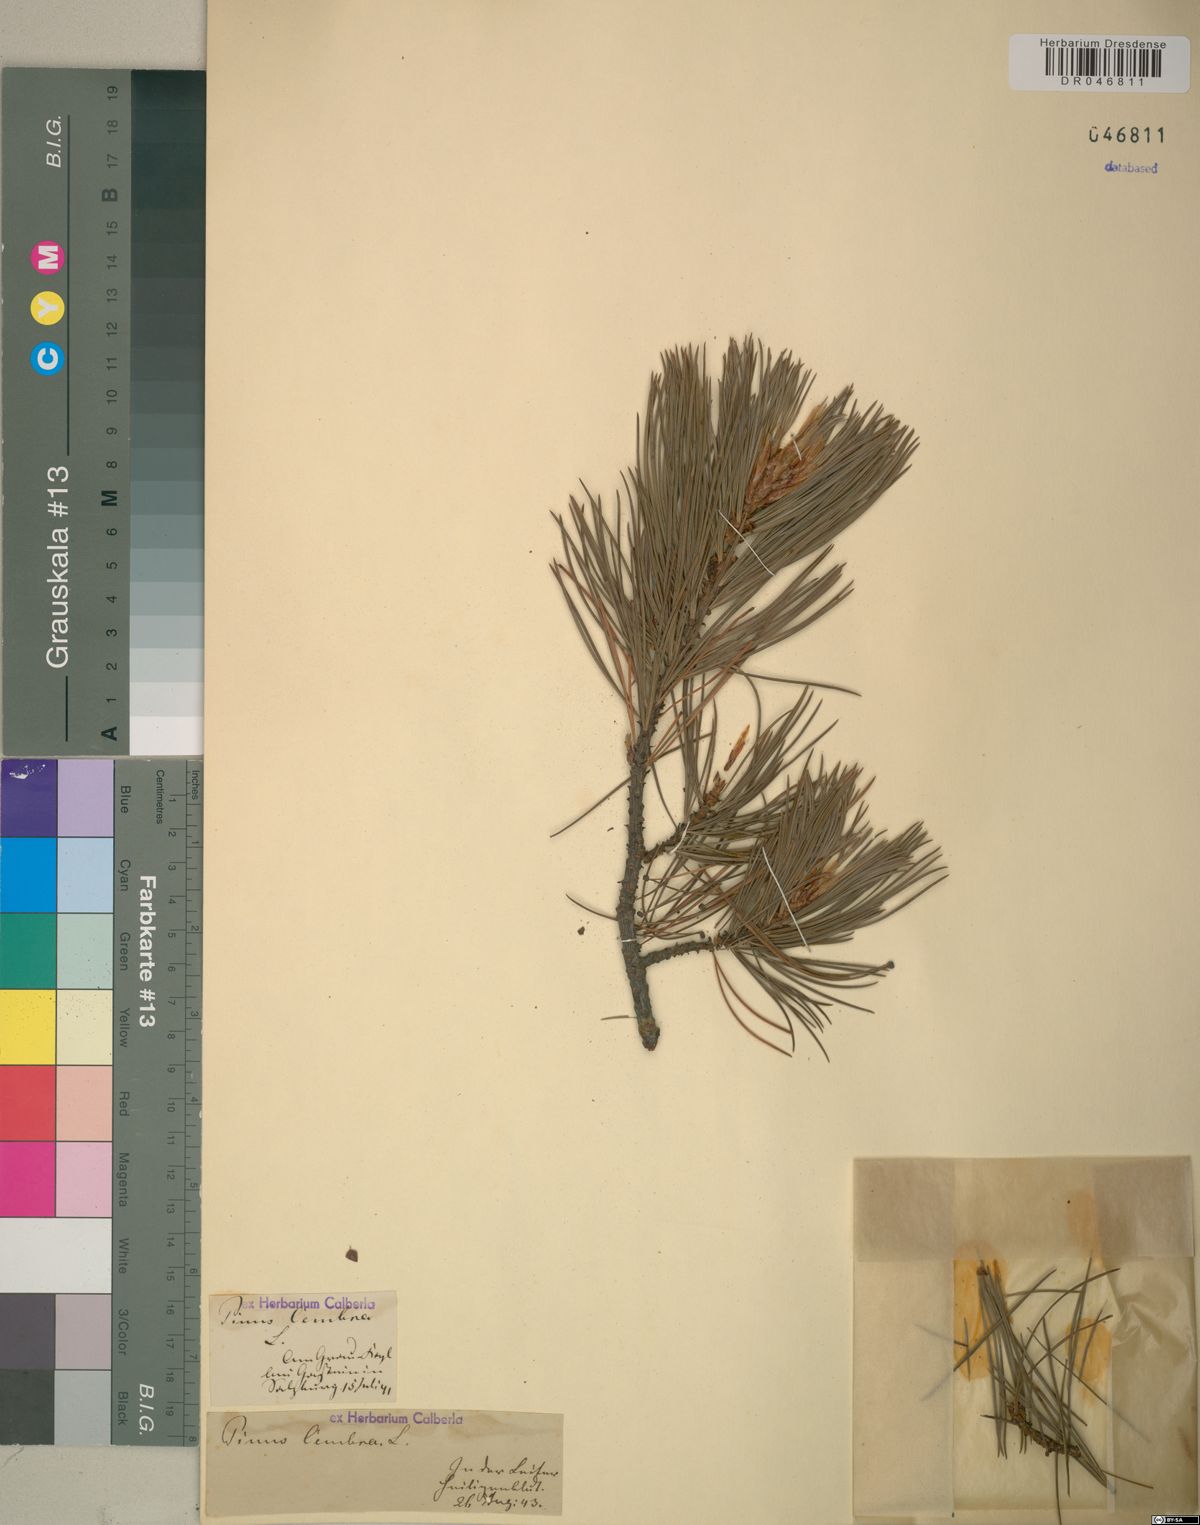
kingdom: Plantae
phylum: Tracheophyta
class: Pinopsida
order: Pinales
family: Pinaceae
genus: Pinus
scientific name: Pinus cembra
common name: Arolla pine
